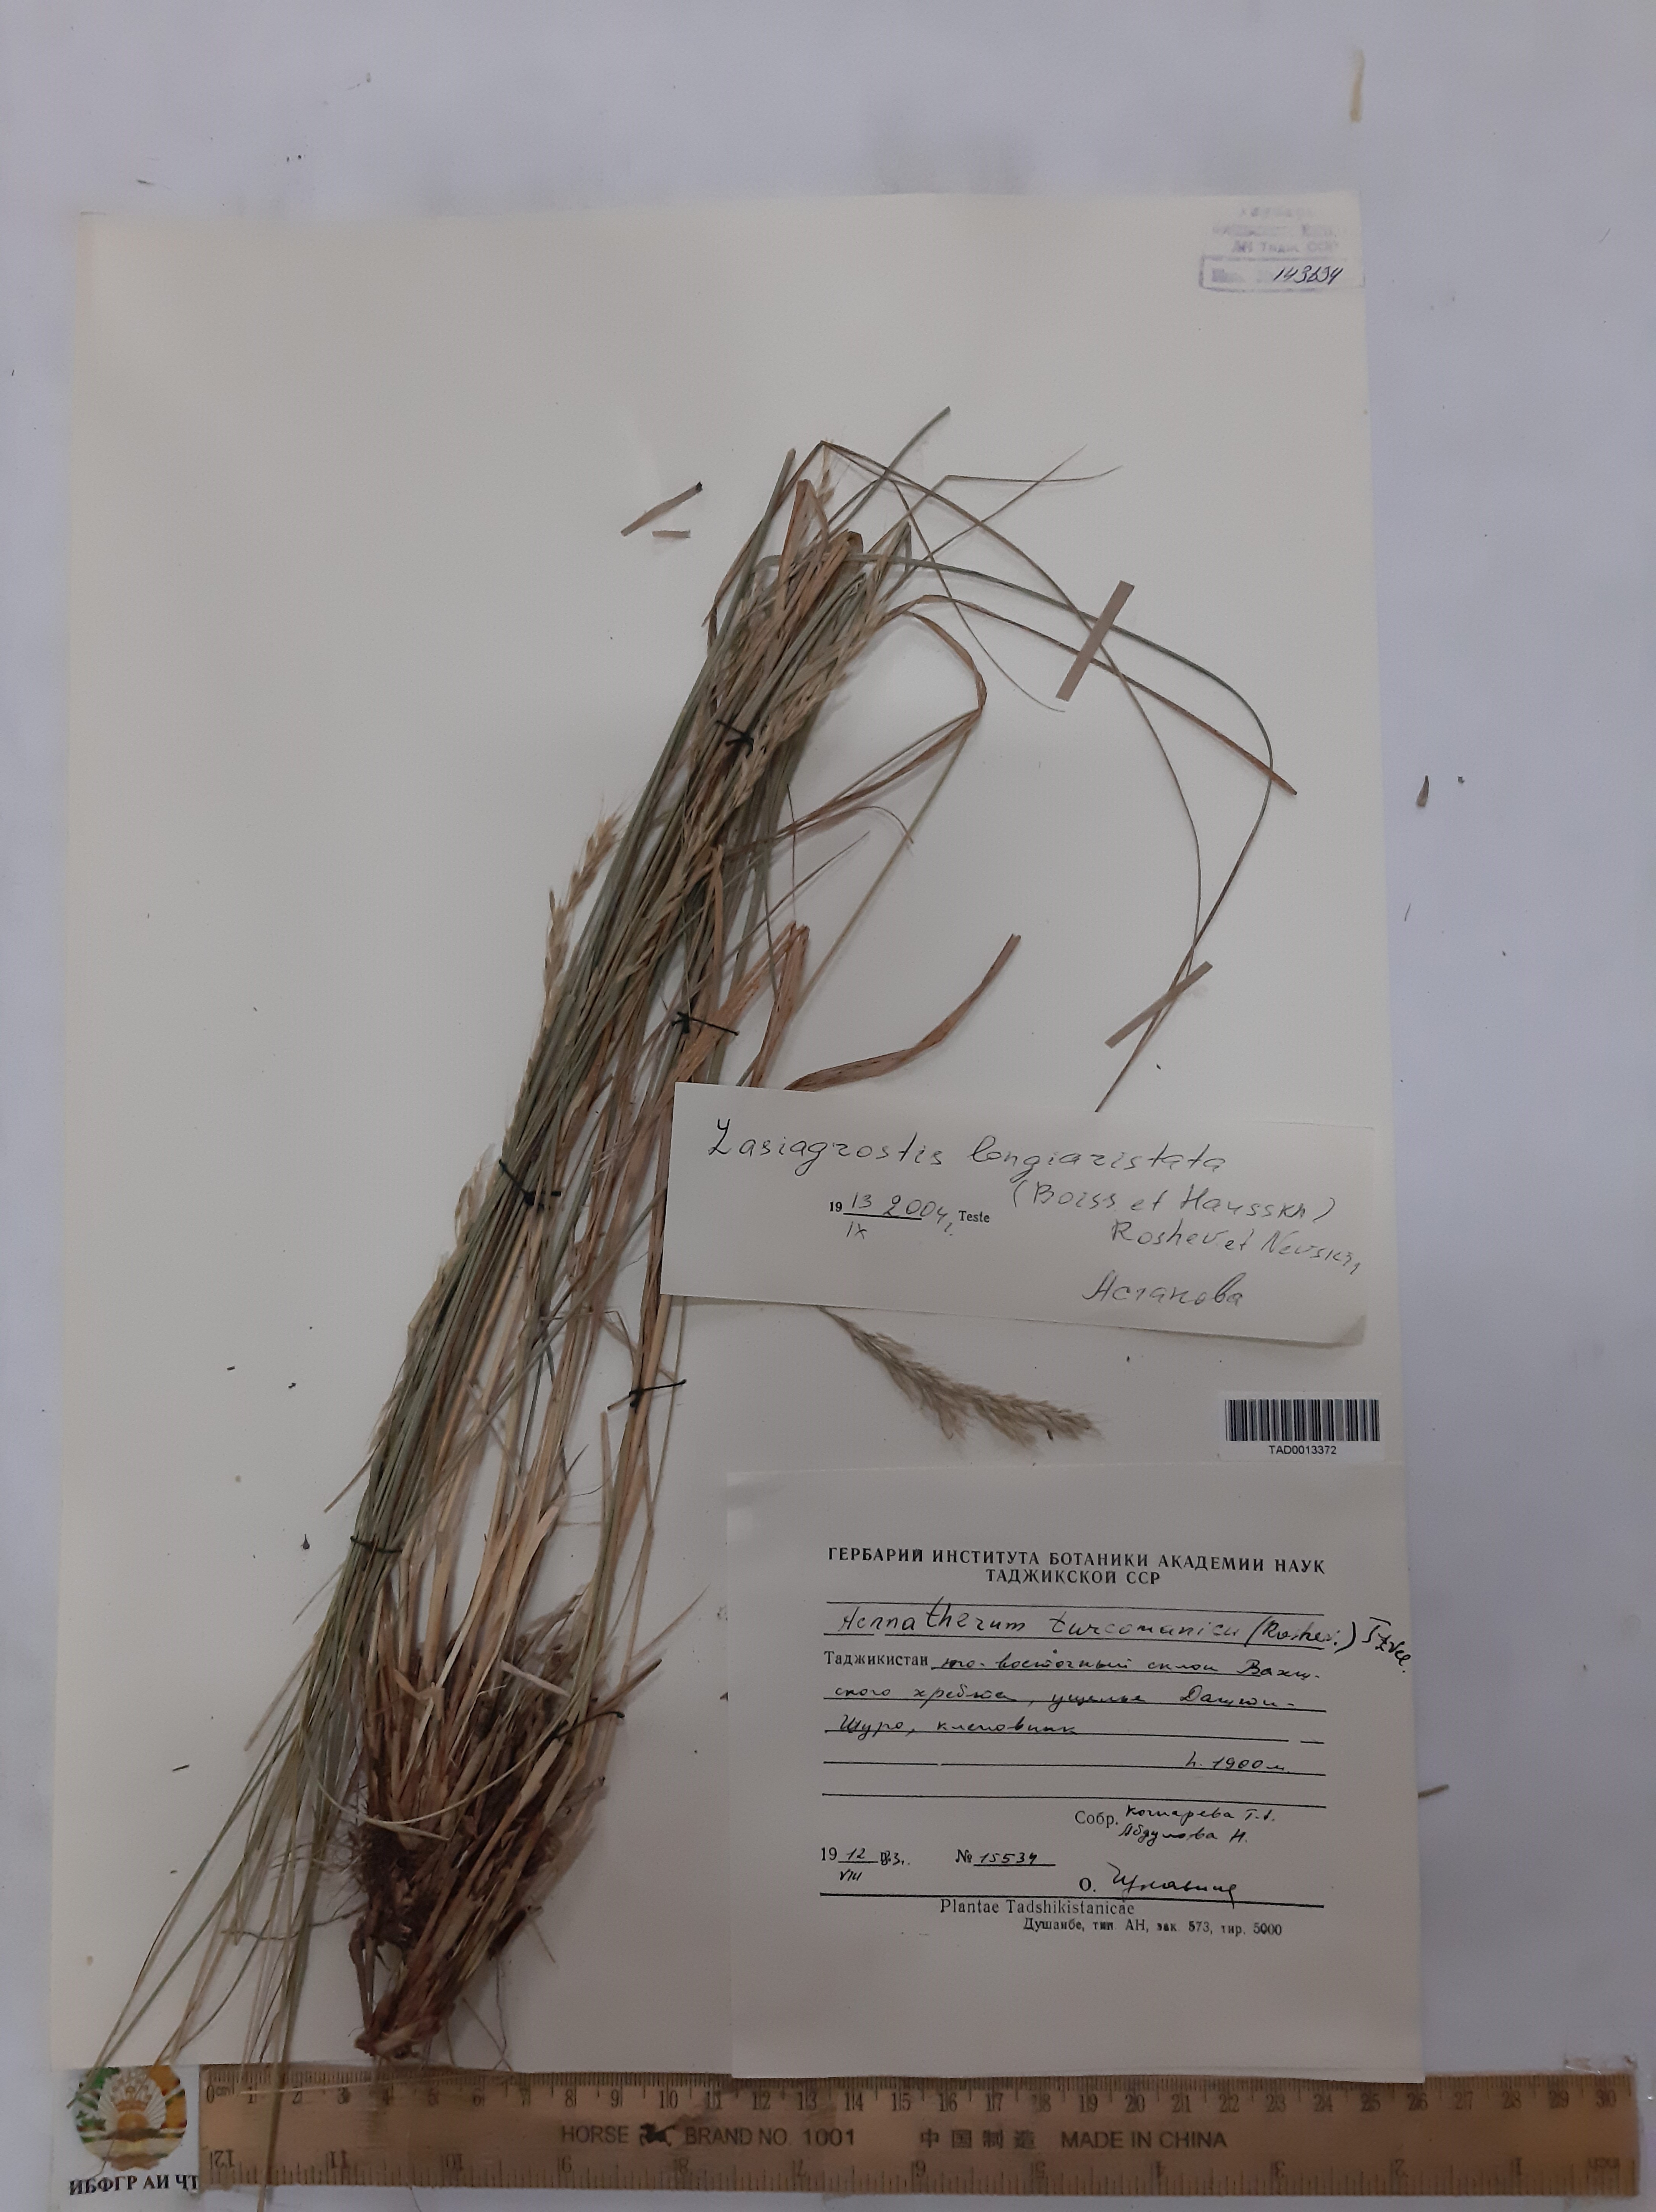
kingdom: Plantae
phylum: Tracheophyta
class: Liliopsida
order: Poales
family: Poaceae
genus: Achnatherum
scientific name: Achnatherum turcomanicum
